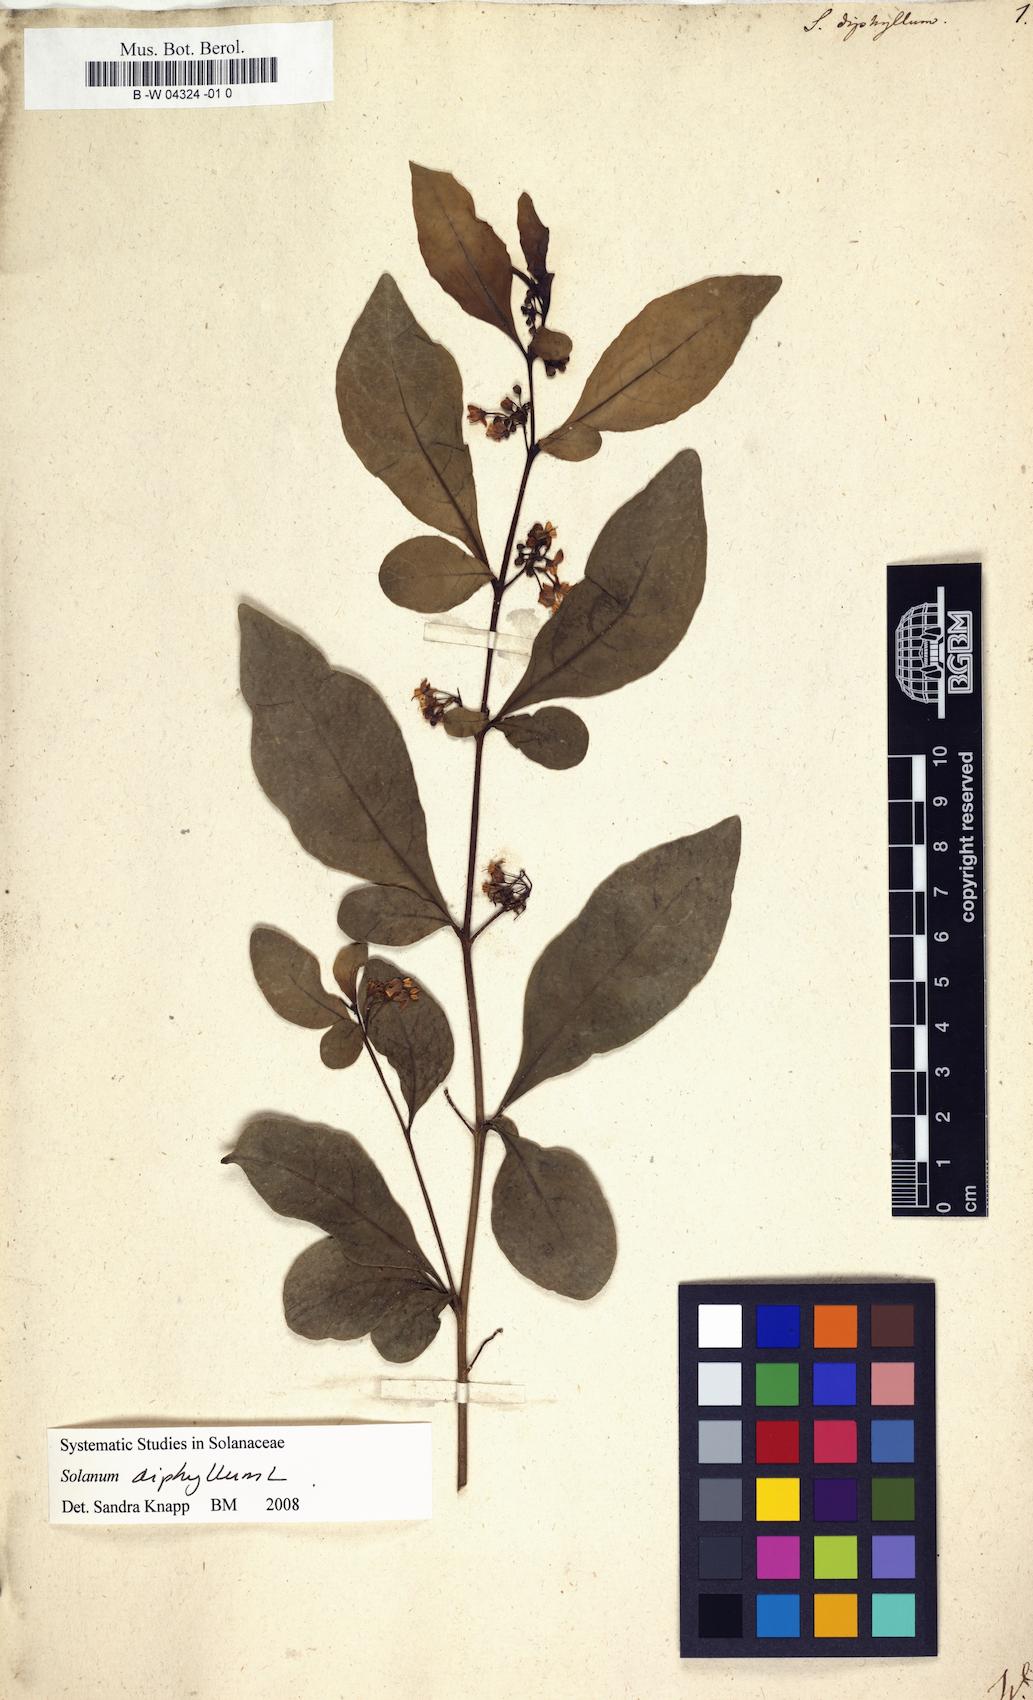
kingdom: Plantae
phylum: Tracheophyta
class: Magnoliopsida
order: Solanales
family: Solanaceae
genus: Solanum
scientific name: Solanum diphyllum
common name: Twoleaf nightshade
